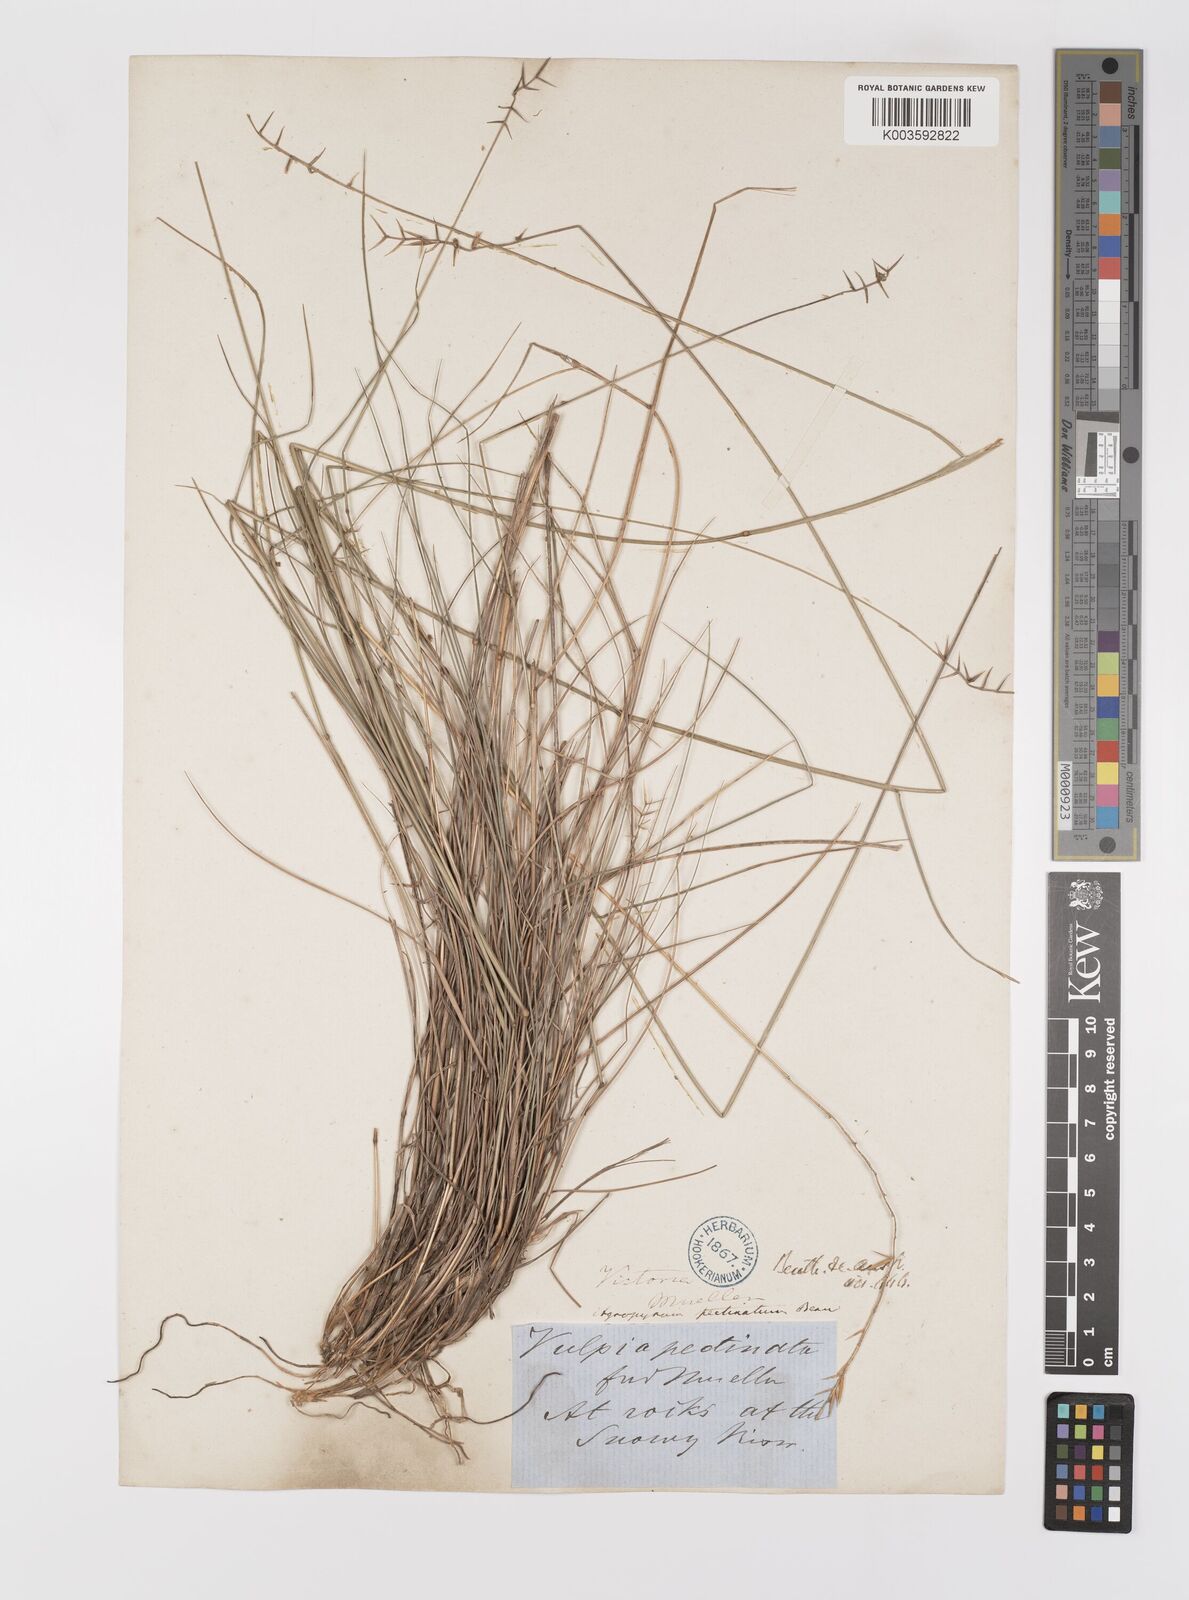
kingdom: Plantae
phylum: Tracheophyta
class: Liliopsida
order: Poales
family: Poaceae
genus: Australopyrum
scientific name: Australopyrum pectinatum
